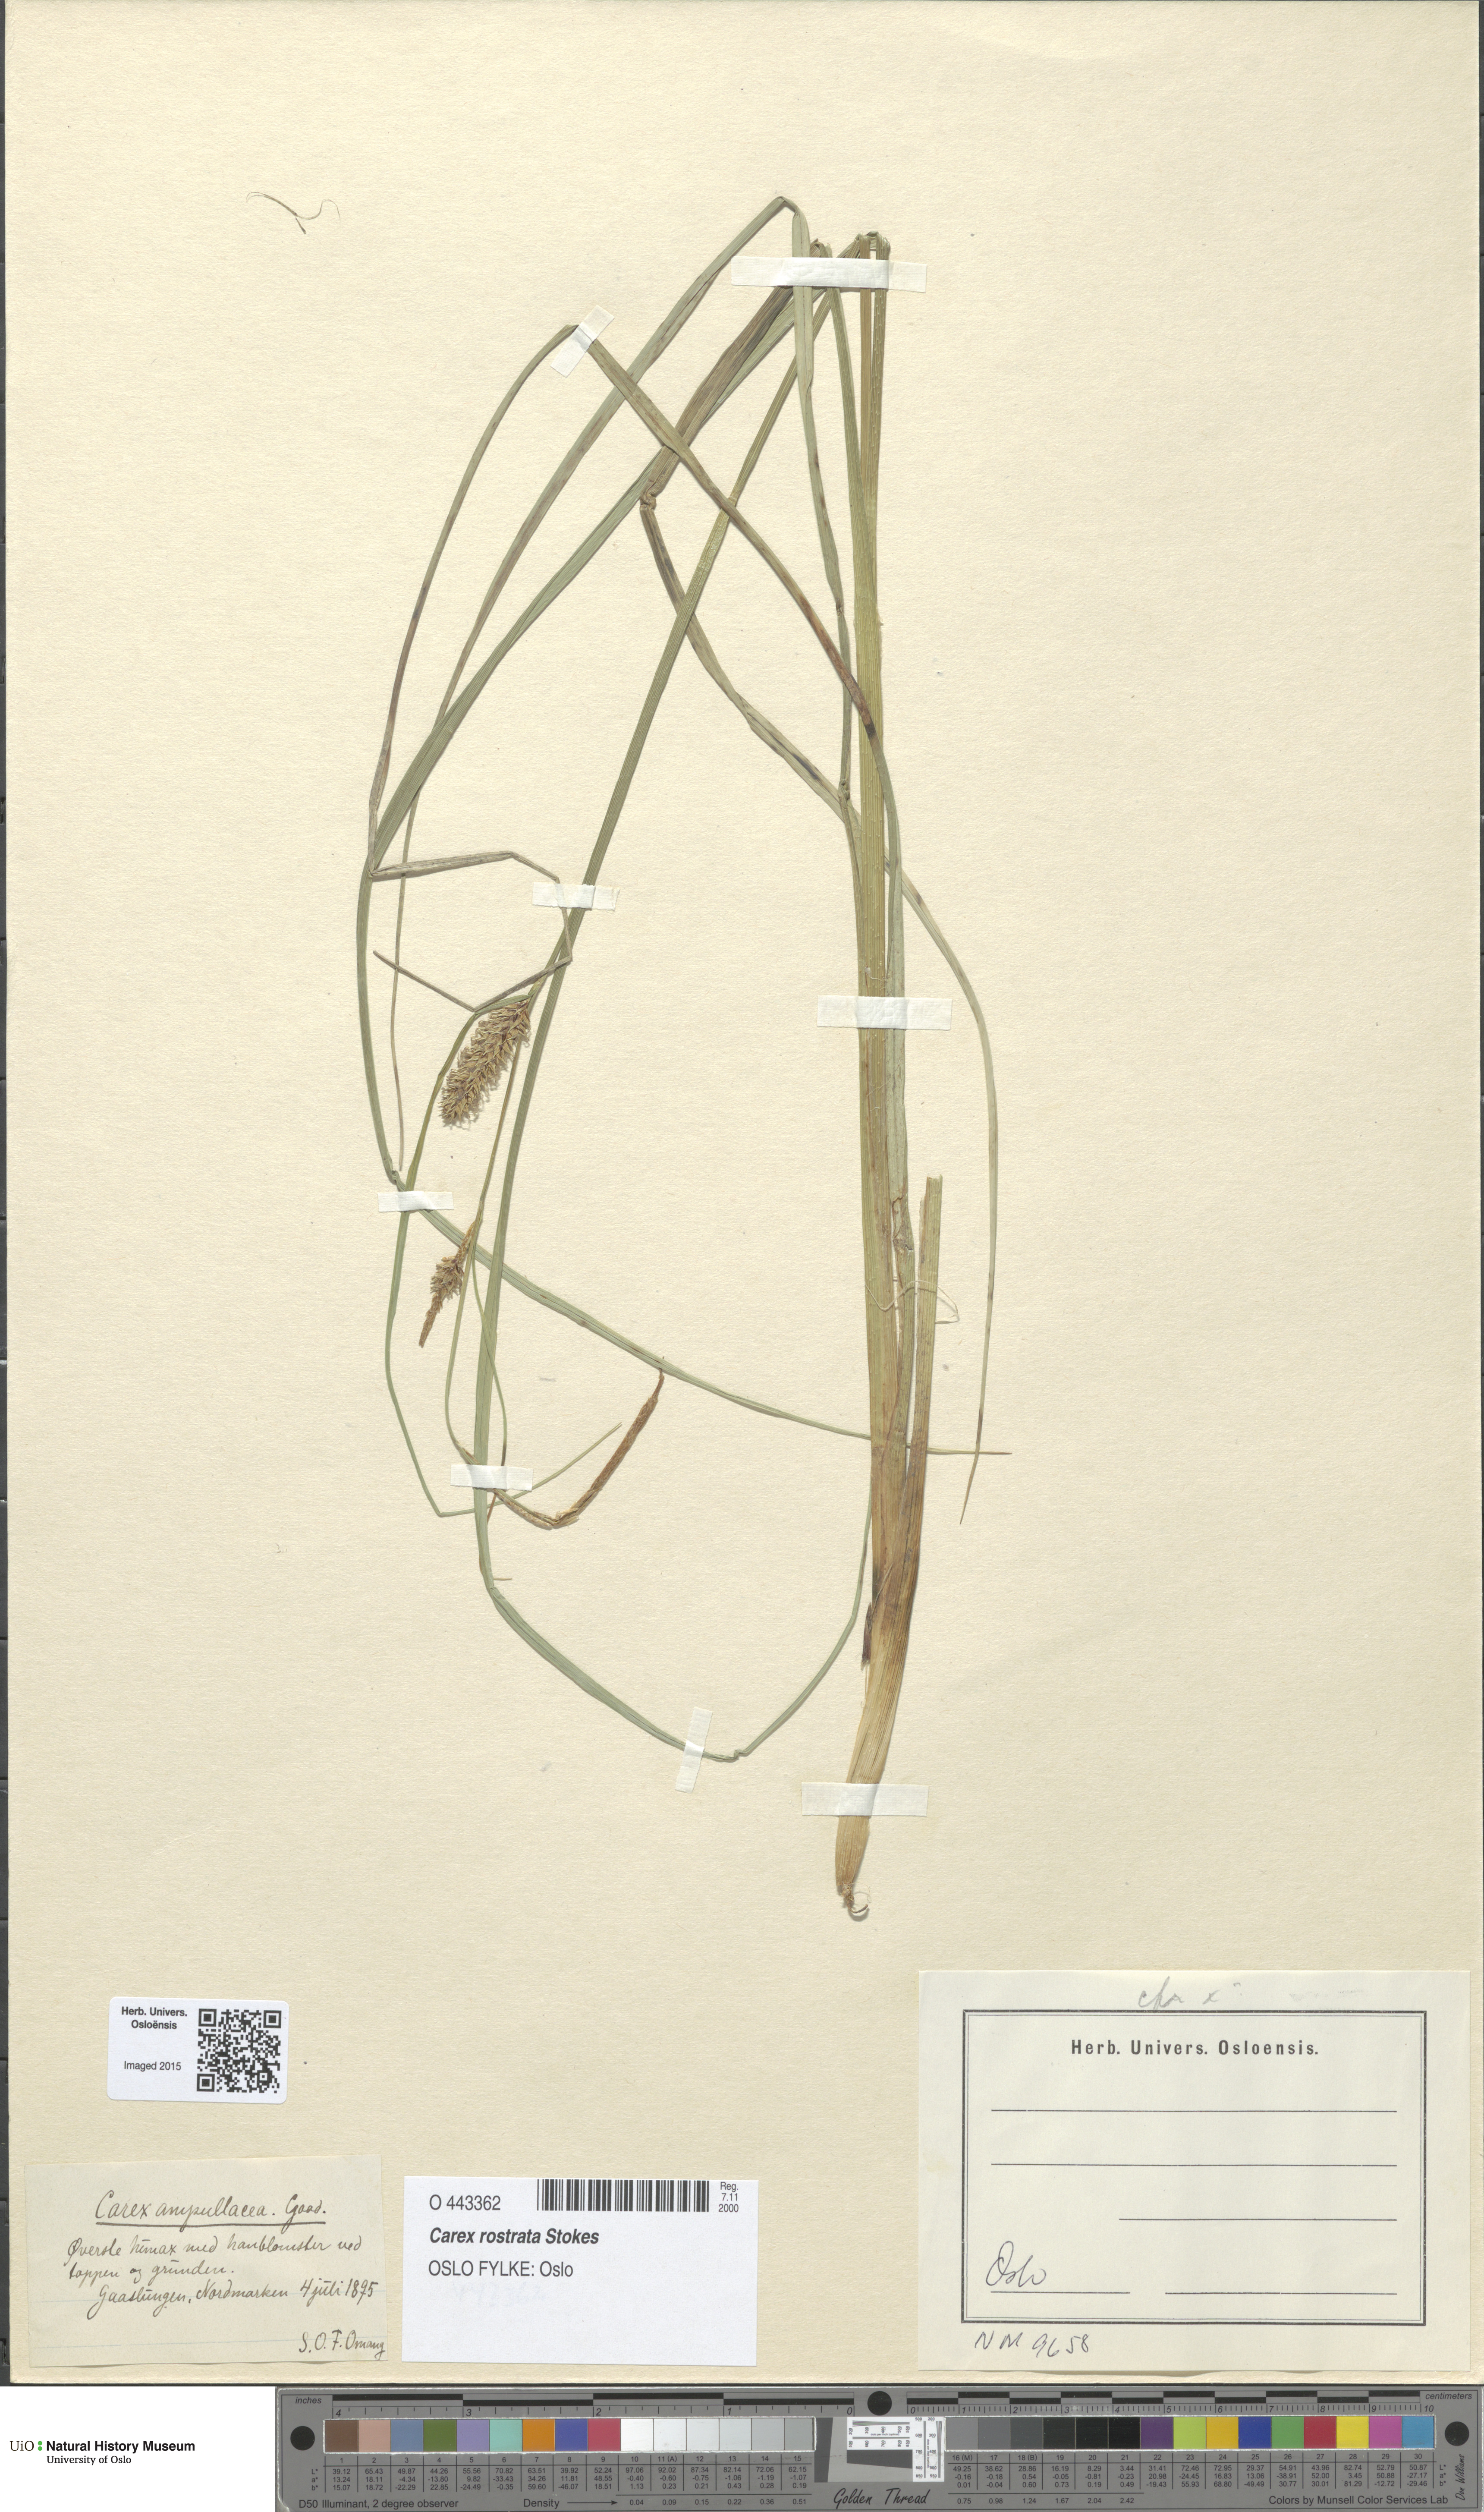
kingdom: Plantae
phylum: Tracheophyta
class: Liliopsida
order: Poales
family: Cyperaceae
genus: Carex
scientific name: Carex rostrata
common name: Bottle sedge
